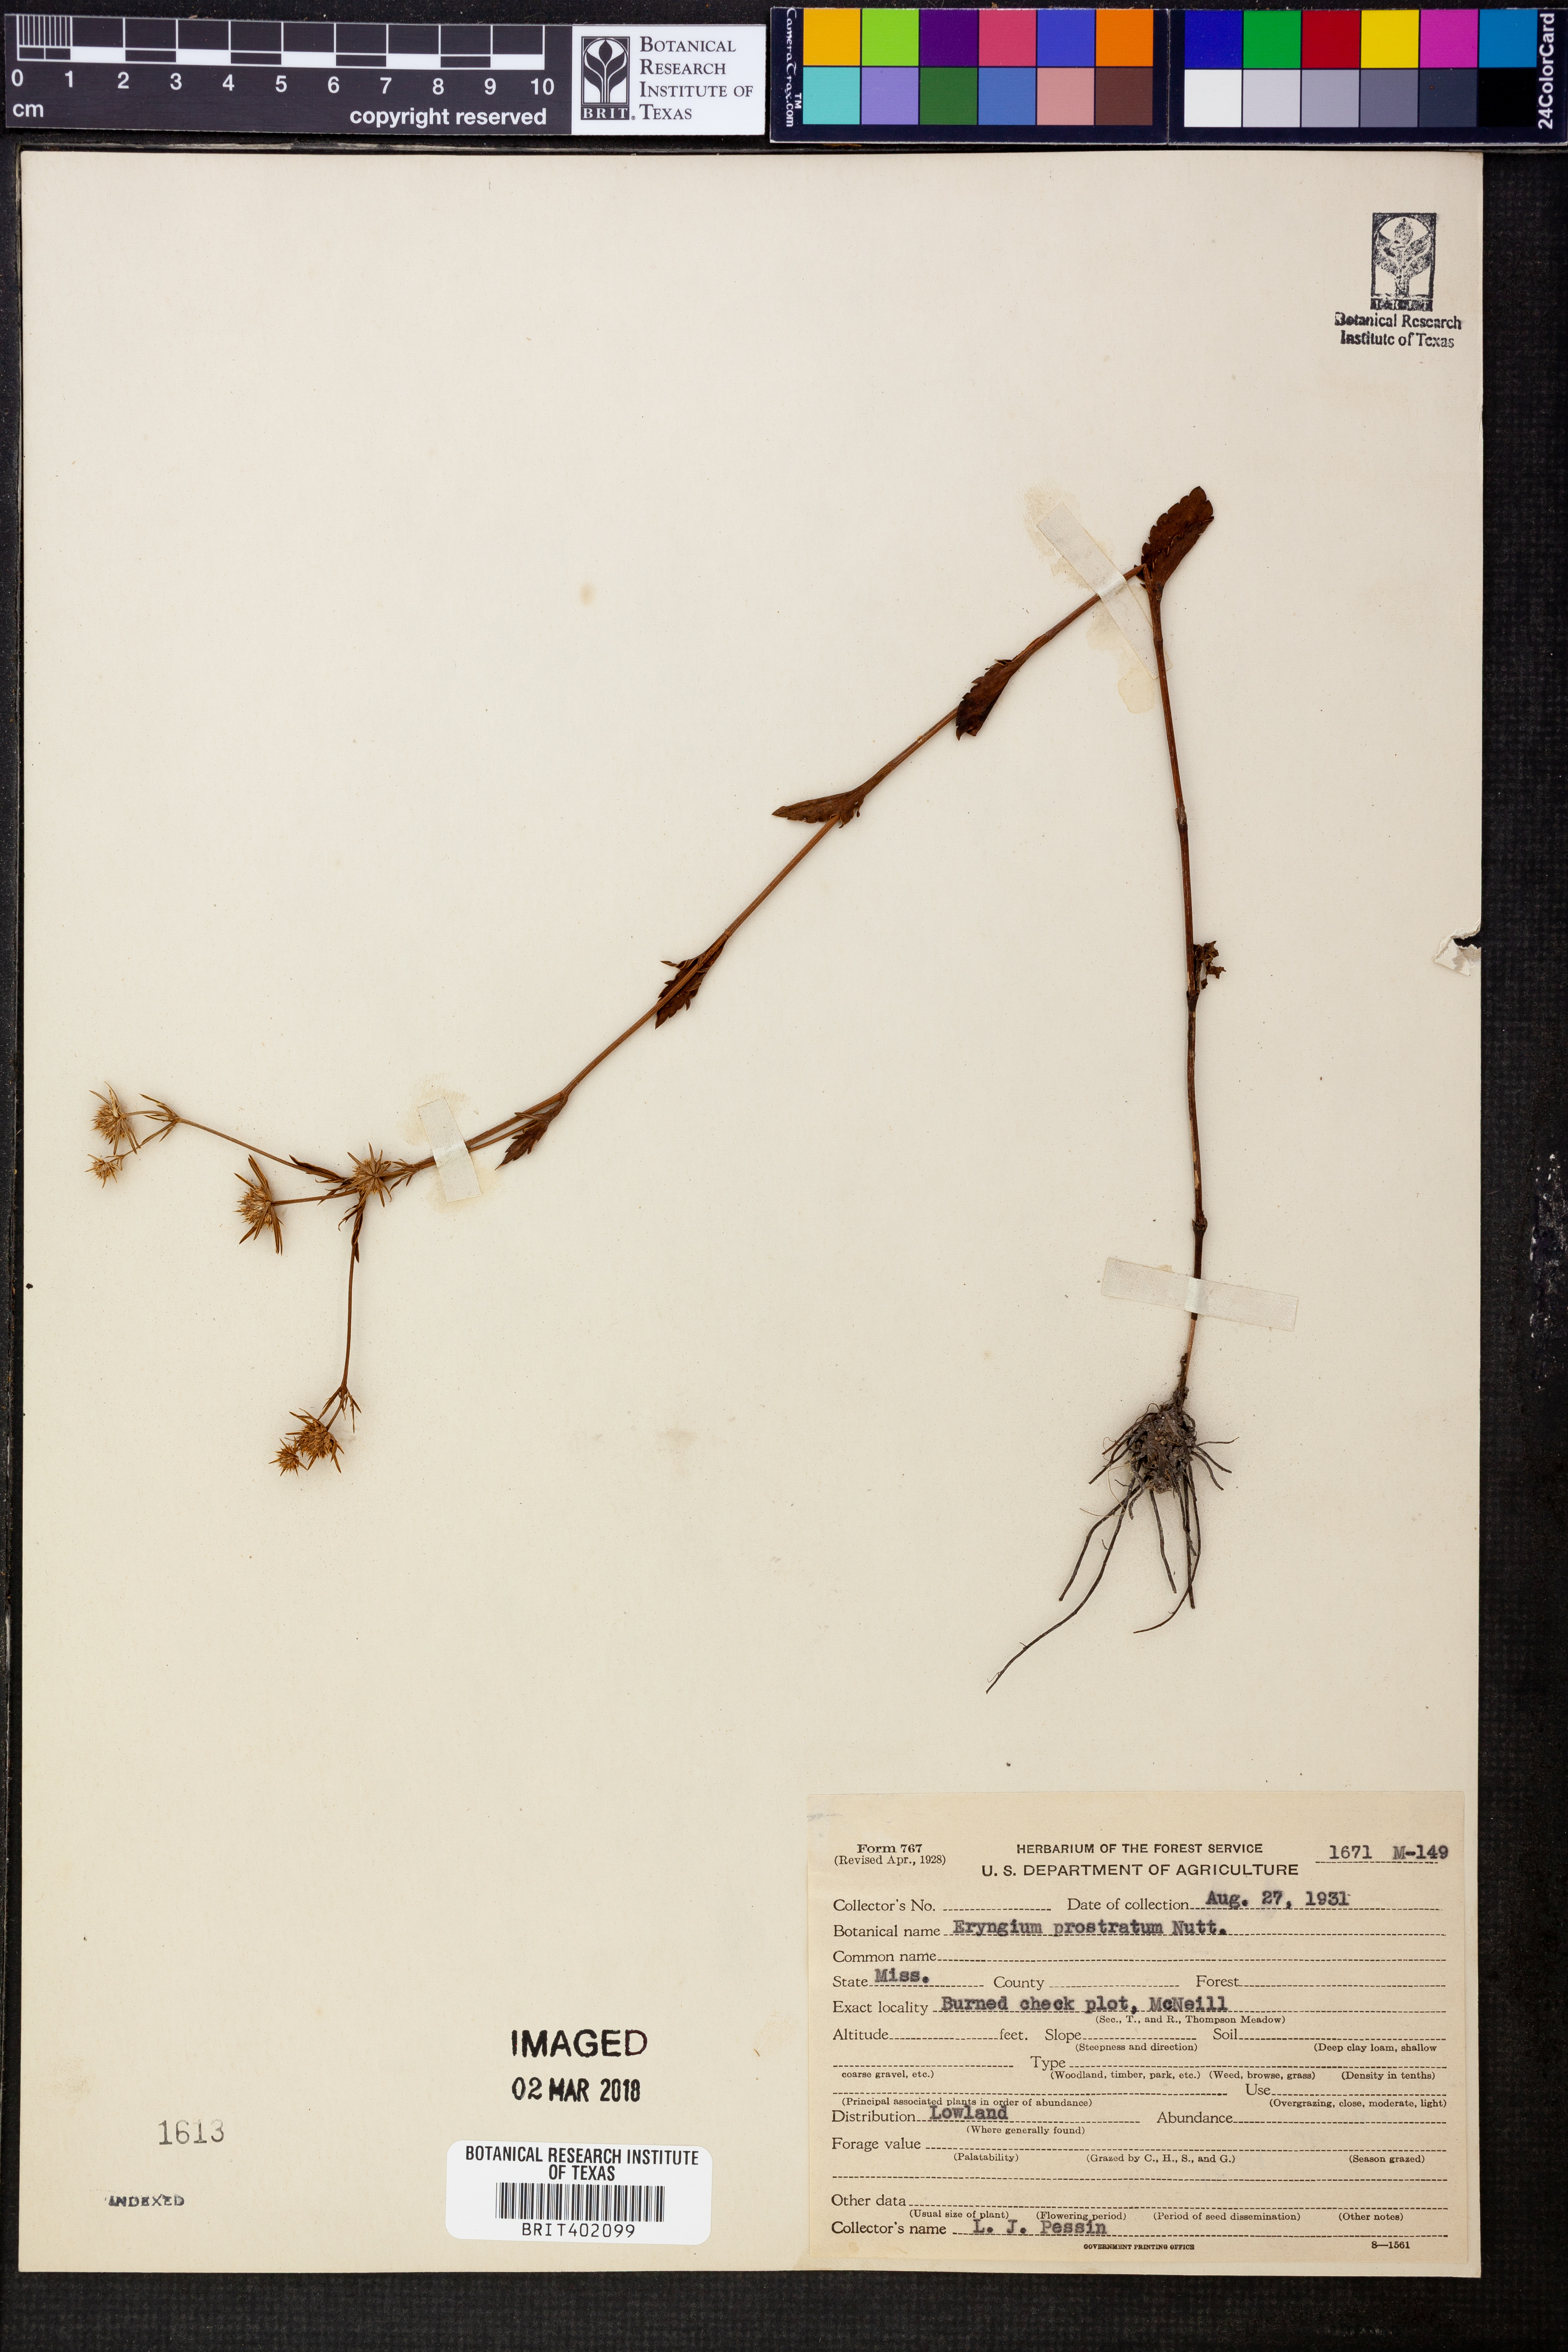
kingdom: Plantae
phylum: Tracheophyta
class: Magnoliopsida
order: Apiales
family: Apiaceae
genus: Eryngium
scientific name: Eryngium prostratum
